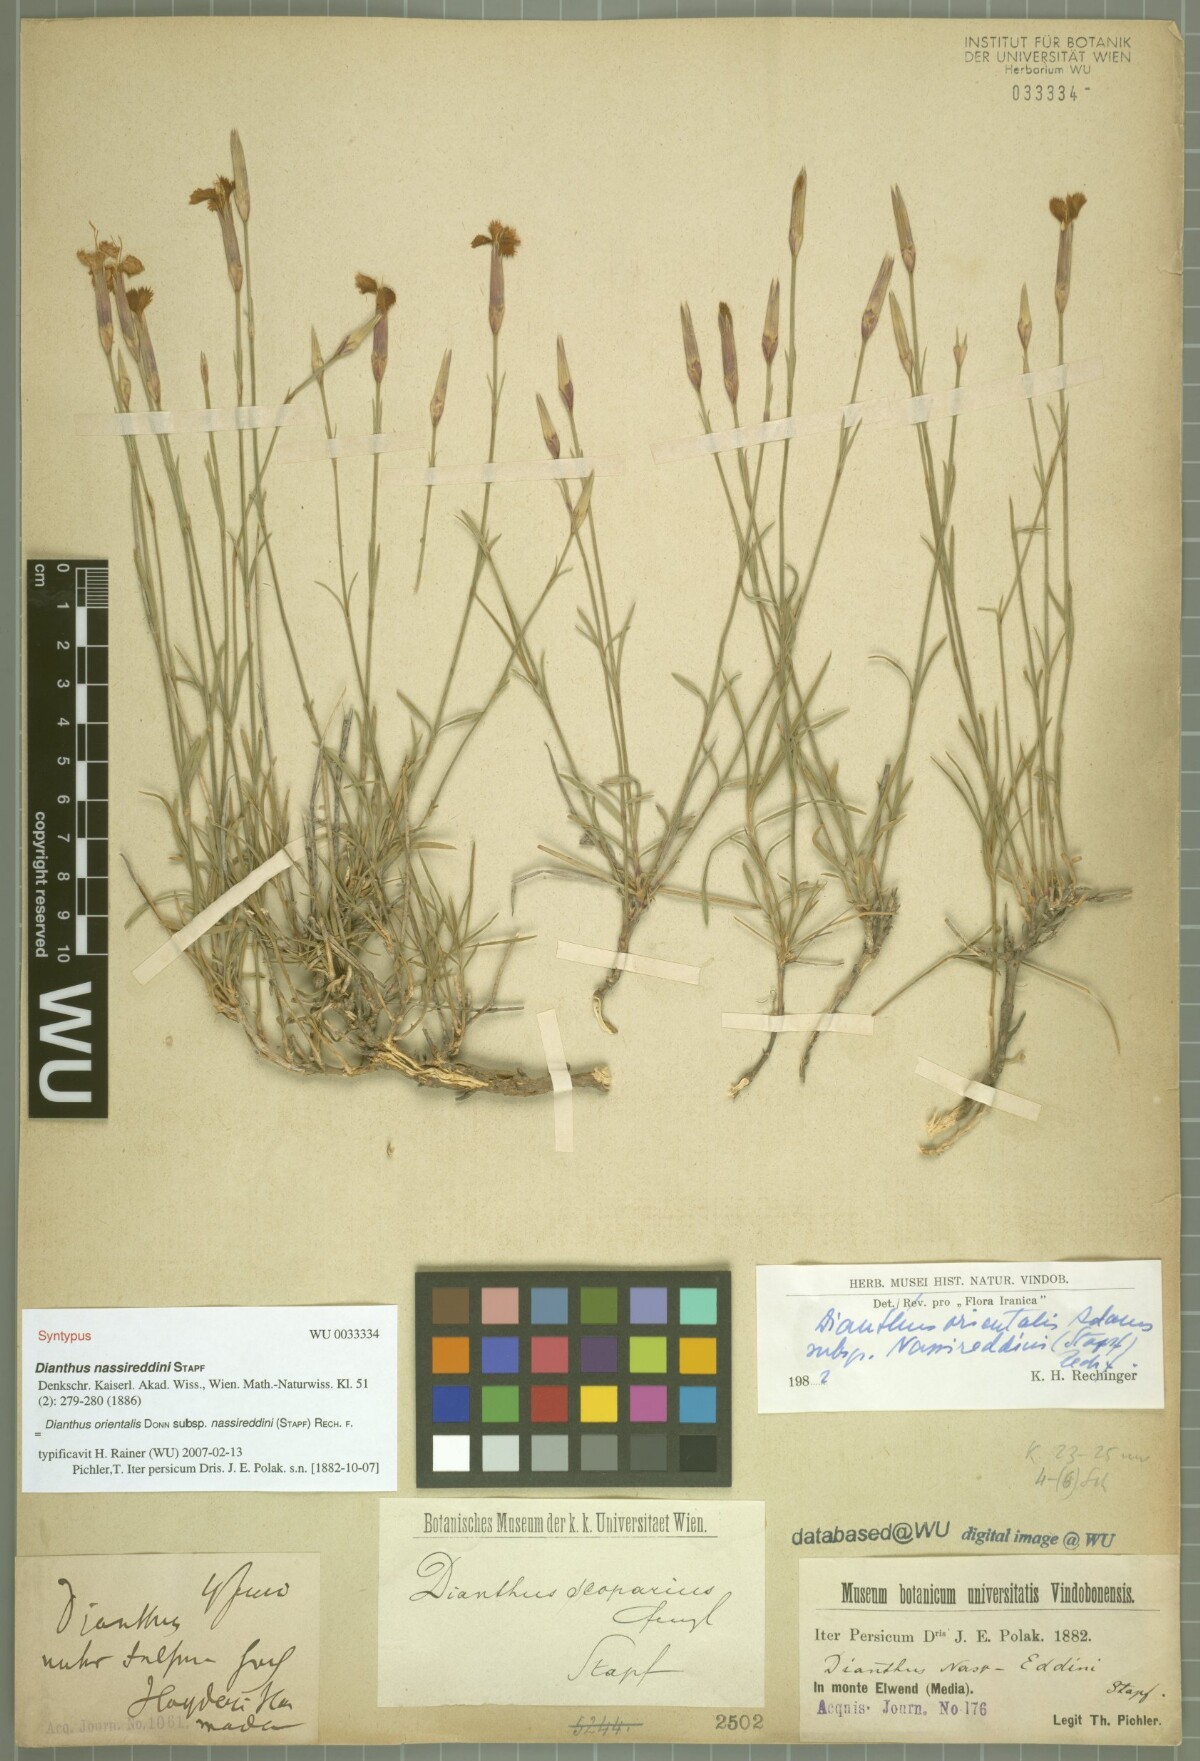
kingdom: Plantae
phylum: Tracheophyta
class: Magnoliopsida
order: Caryophyllales
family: Caryophyllaceae
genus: Dianthus
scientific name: Dianthus orientalis
